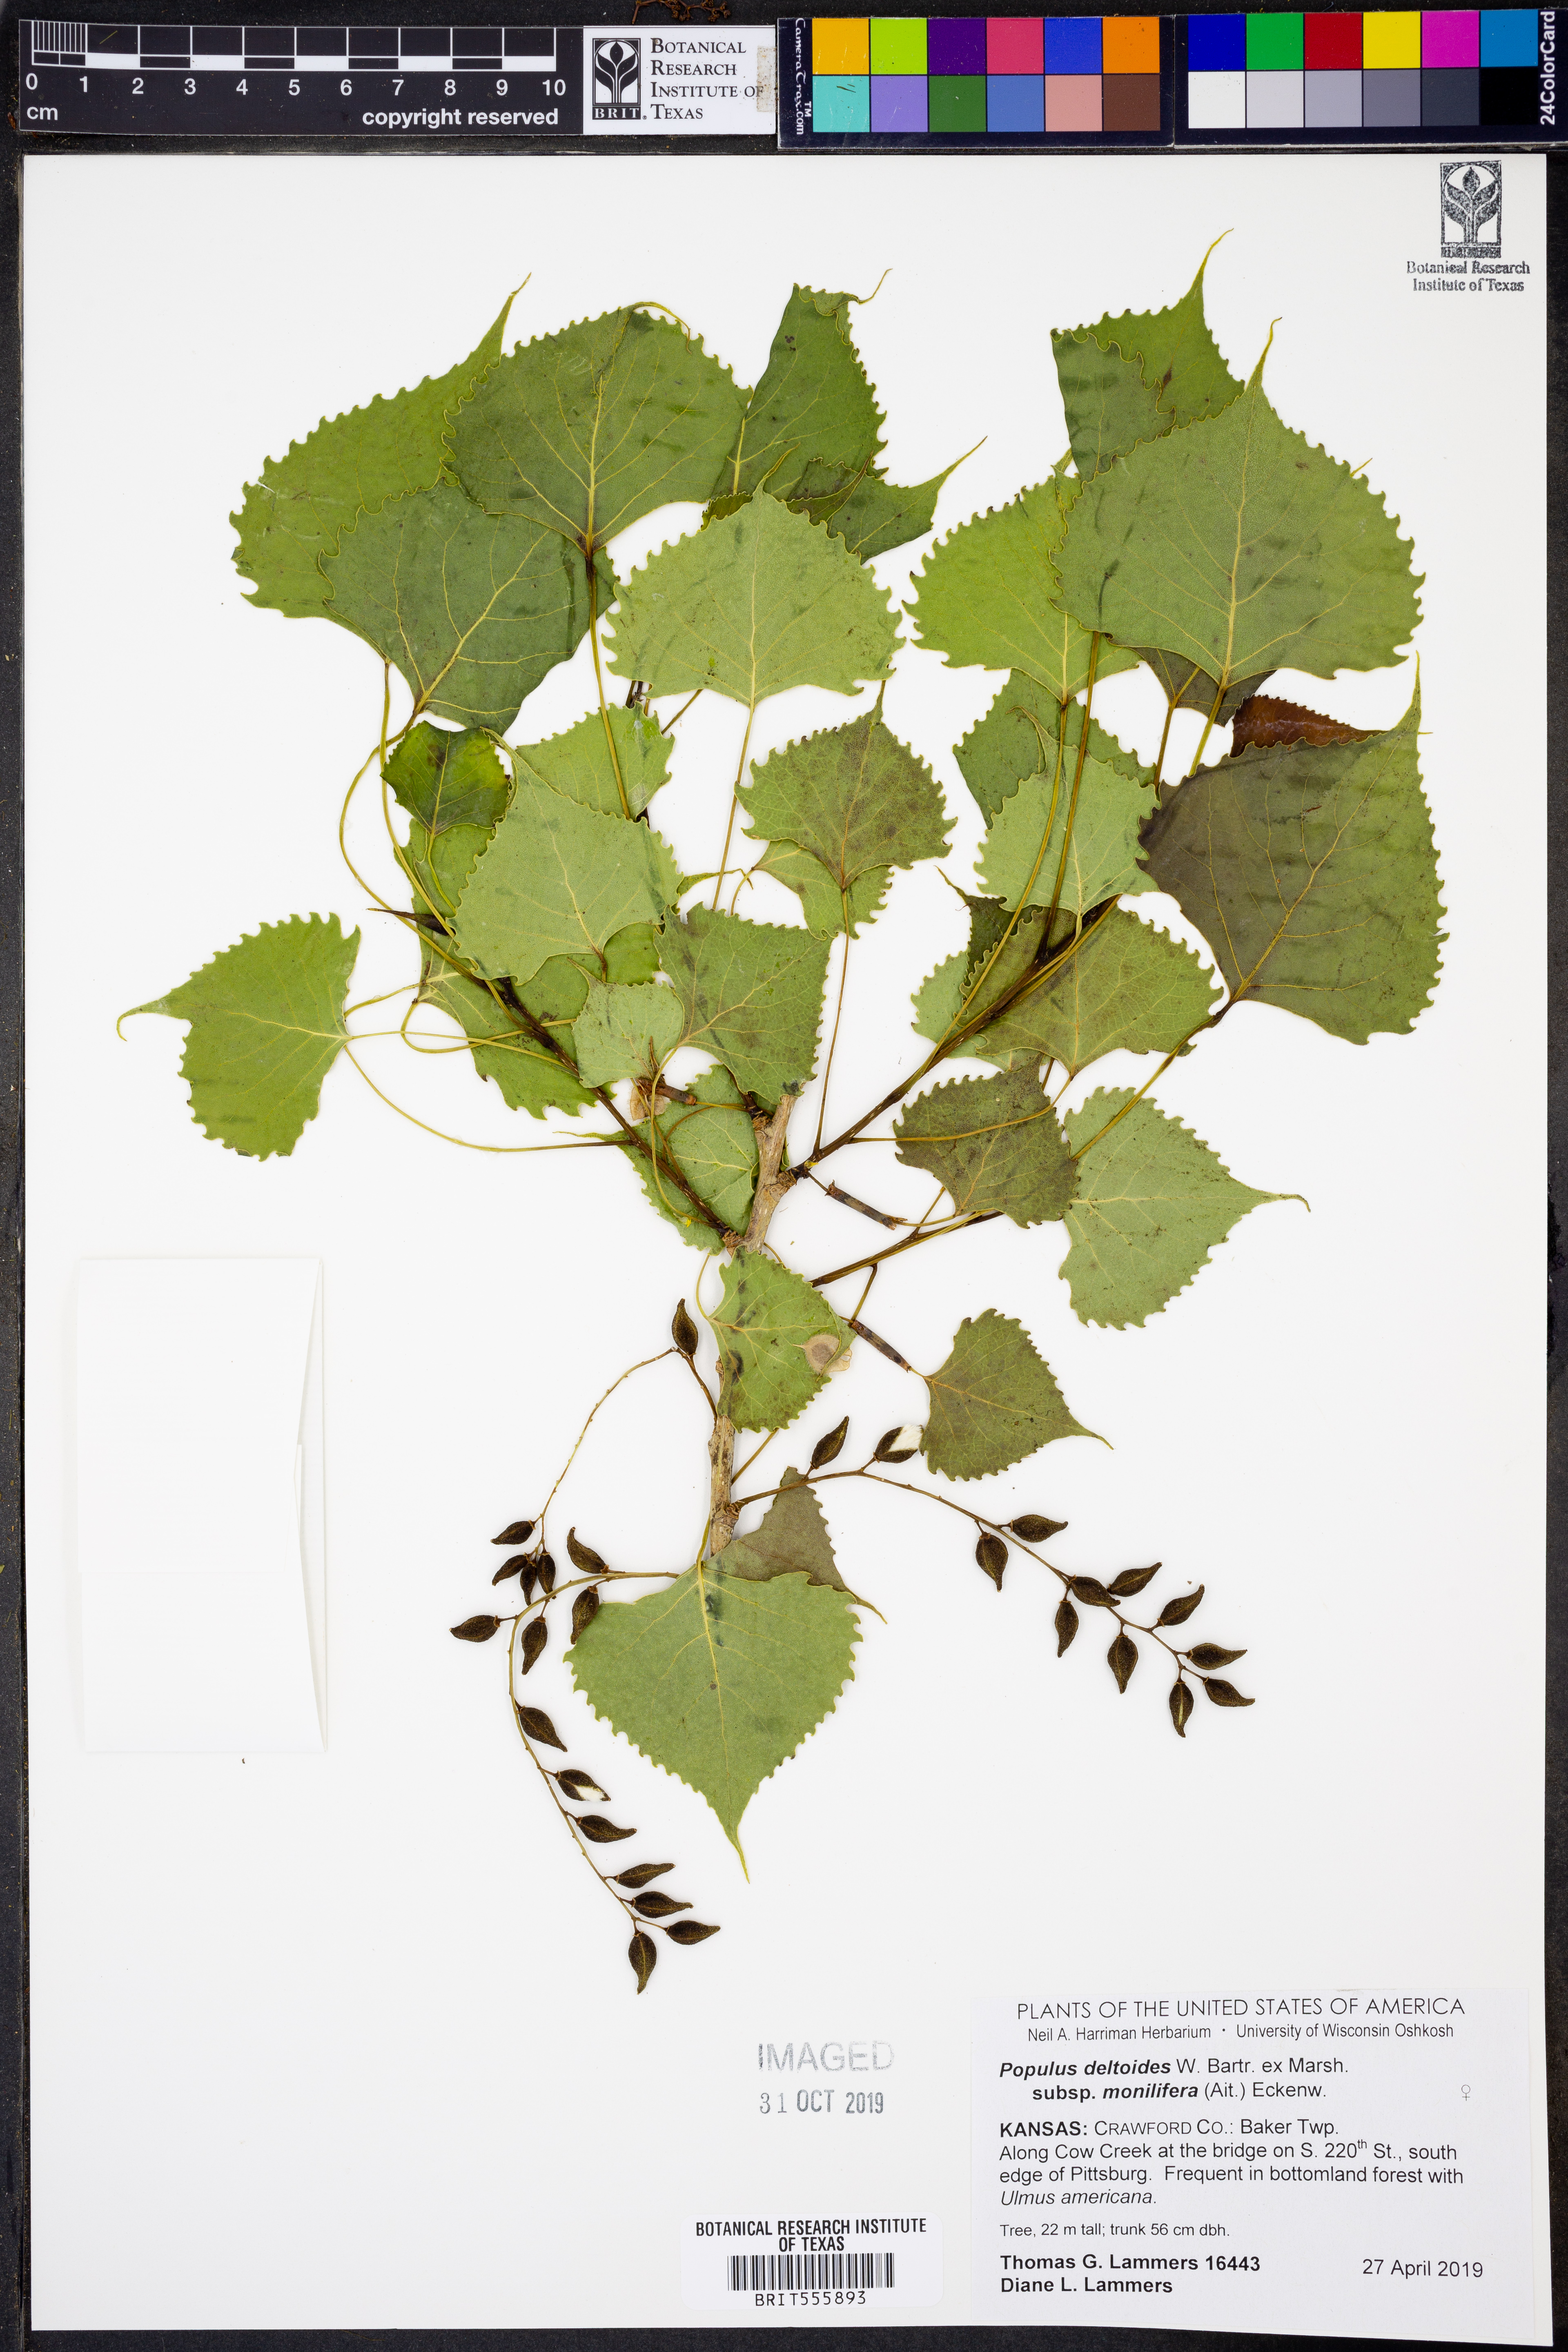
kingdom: Plantae
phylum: Tracheophyta
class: Magnoliopsida
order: Malpighiales
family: Salicaceae
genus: Populus
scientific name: Populus deltoides
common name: Eastern cottonwood
